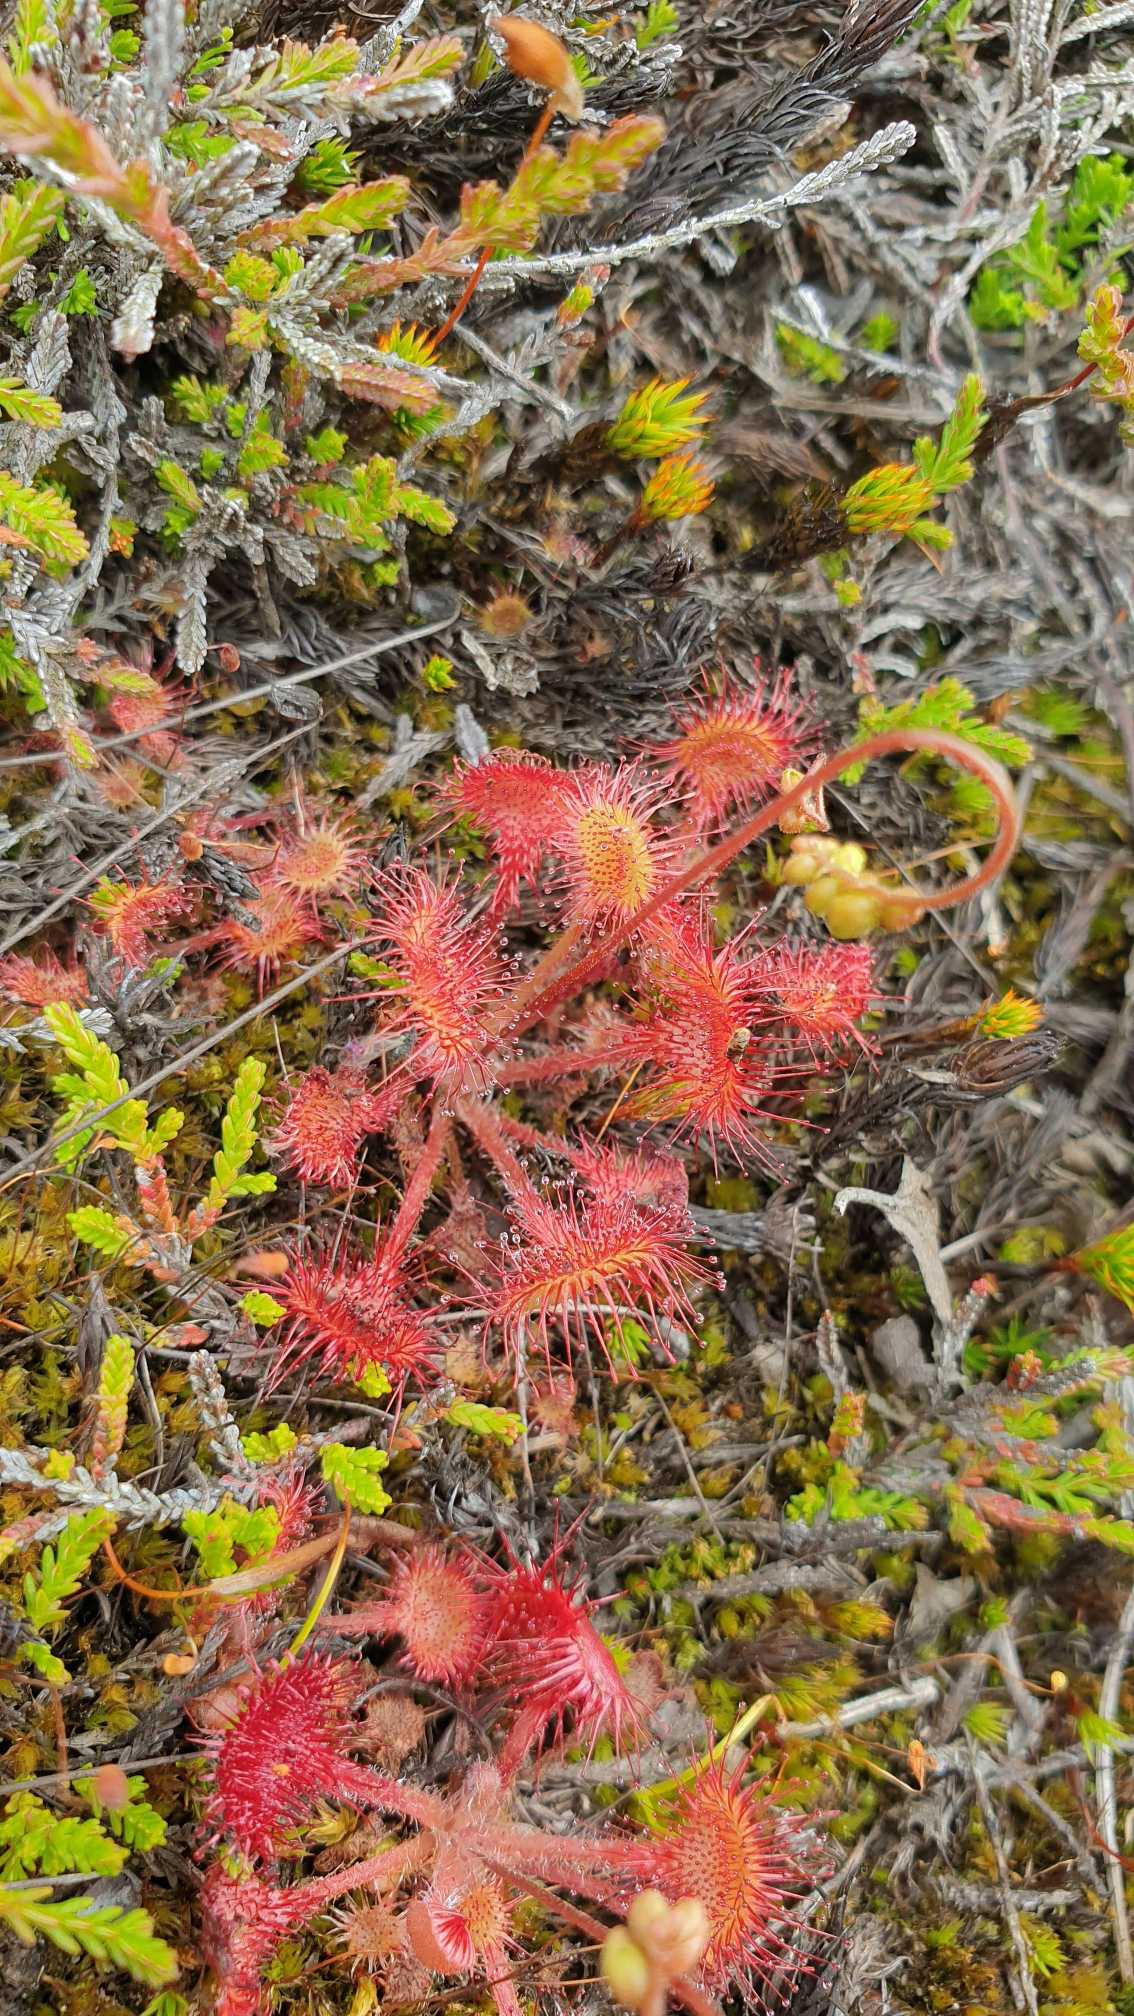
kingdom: Plantae
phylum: Tracheophyta
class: Magnoliopsida
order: Caryophyllales
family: Droseraceae
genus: Drosera
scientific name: Drosera rotundifolia
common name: Rundbladet soldug
